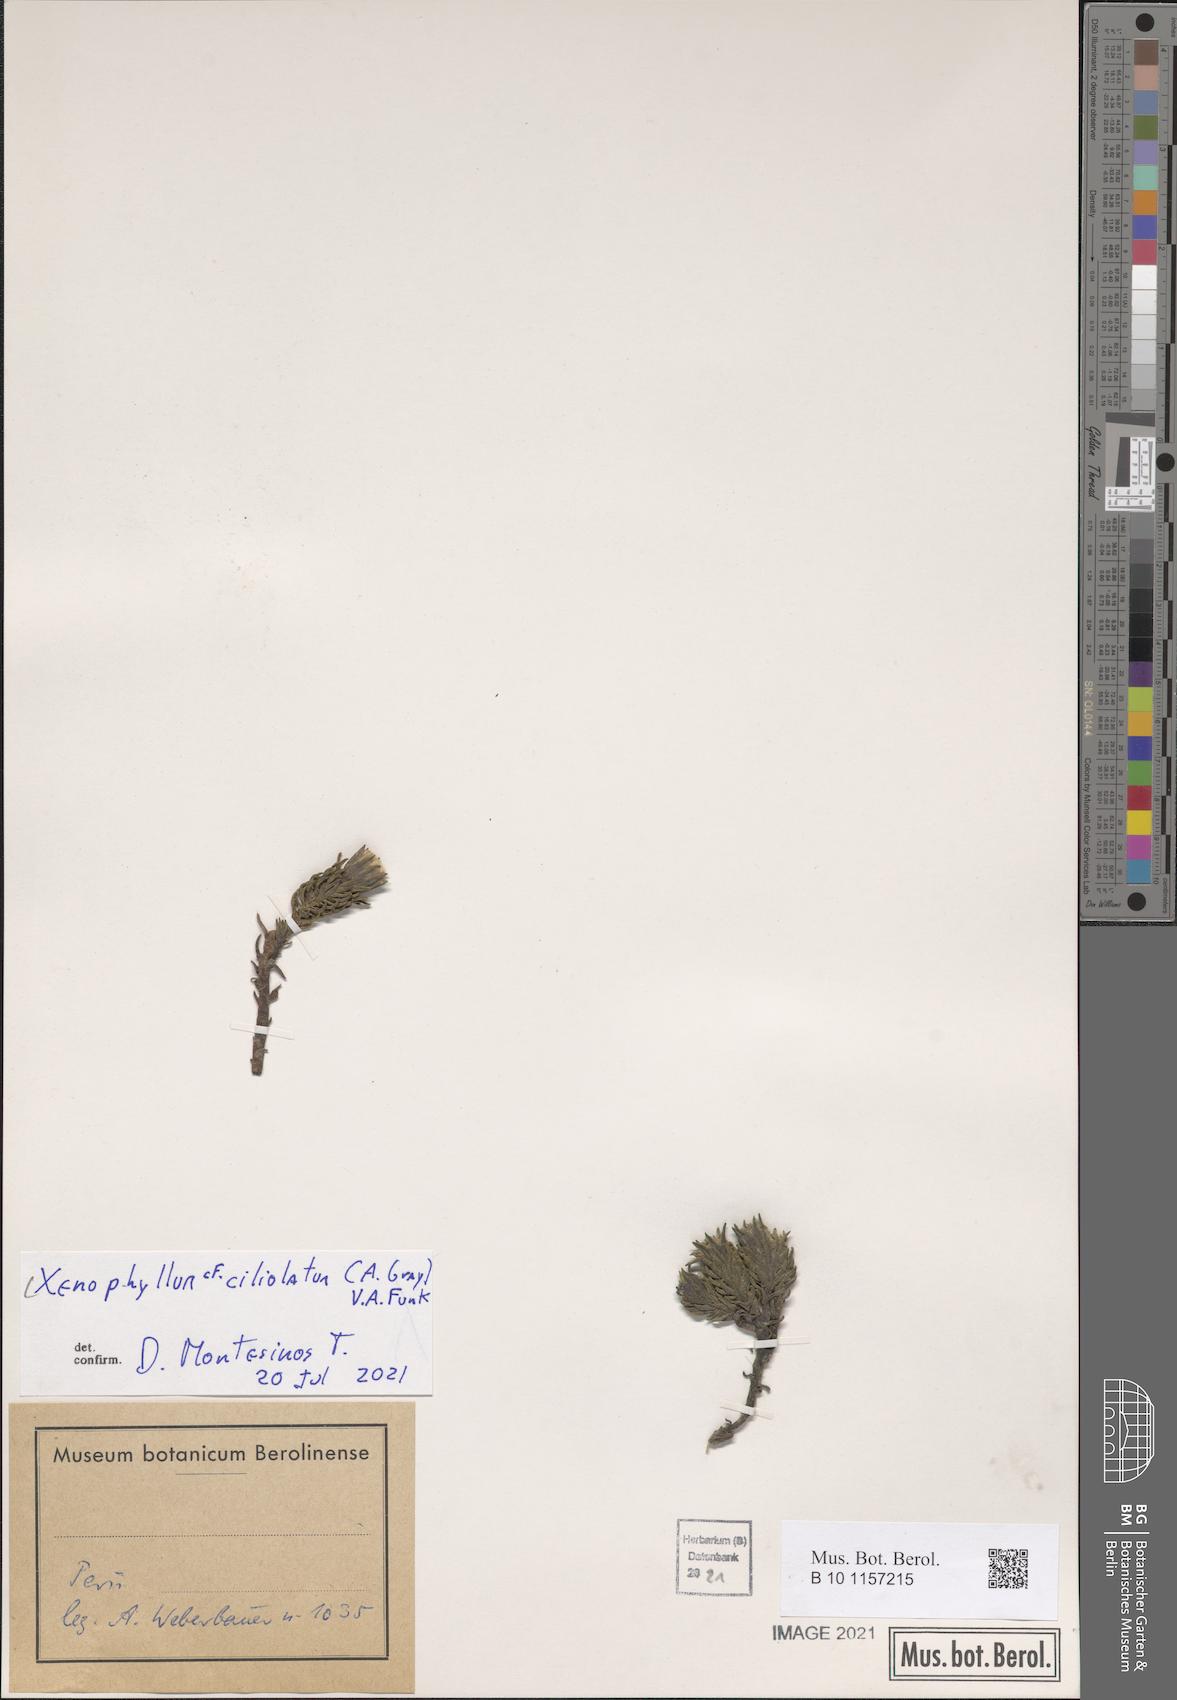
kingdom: Plantae
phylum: Tracheophyta
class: Magnoliopsida
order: Asterales
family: Asteraceae
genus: Werneria
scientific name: Werneria ciliolata
